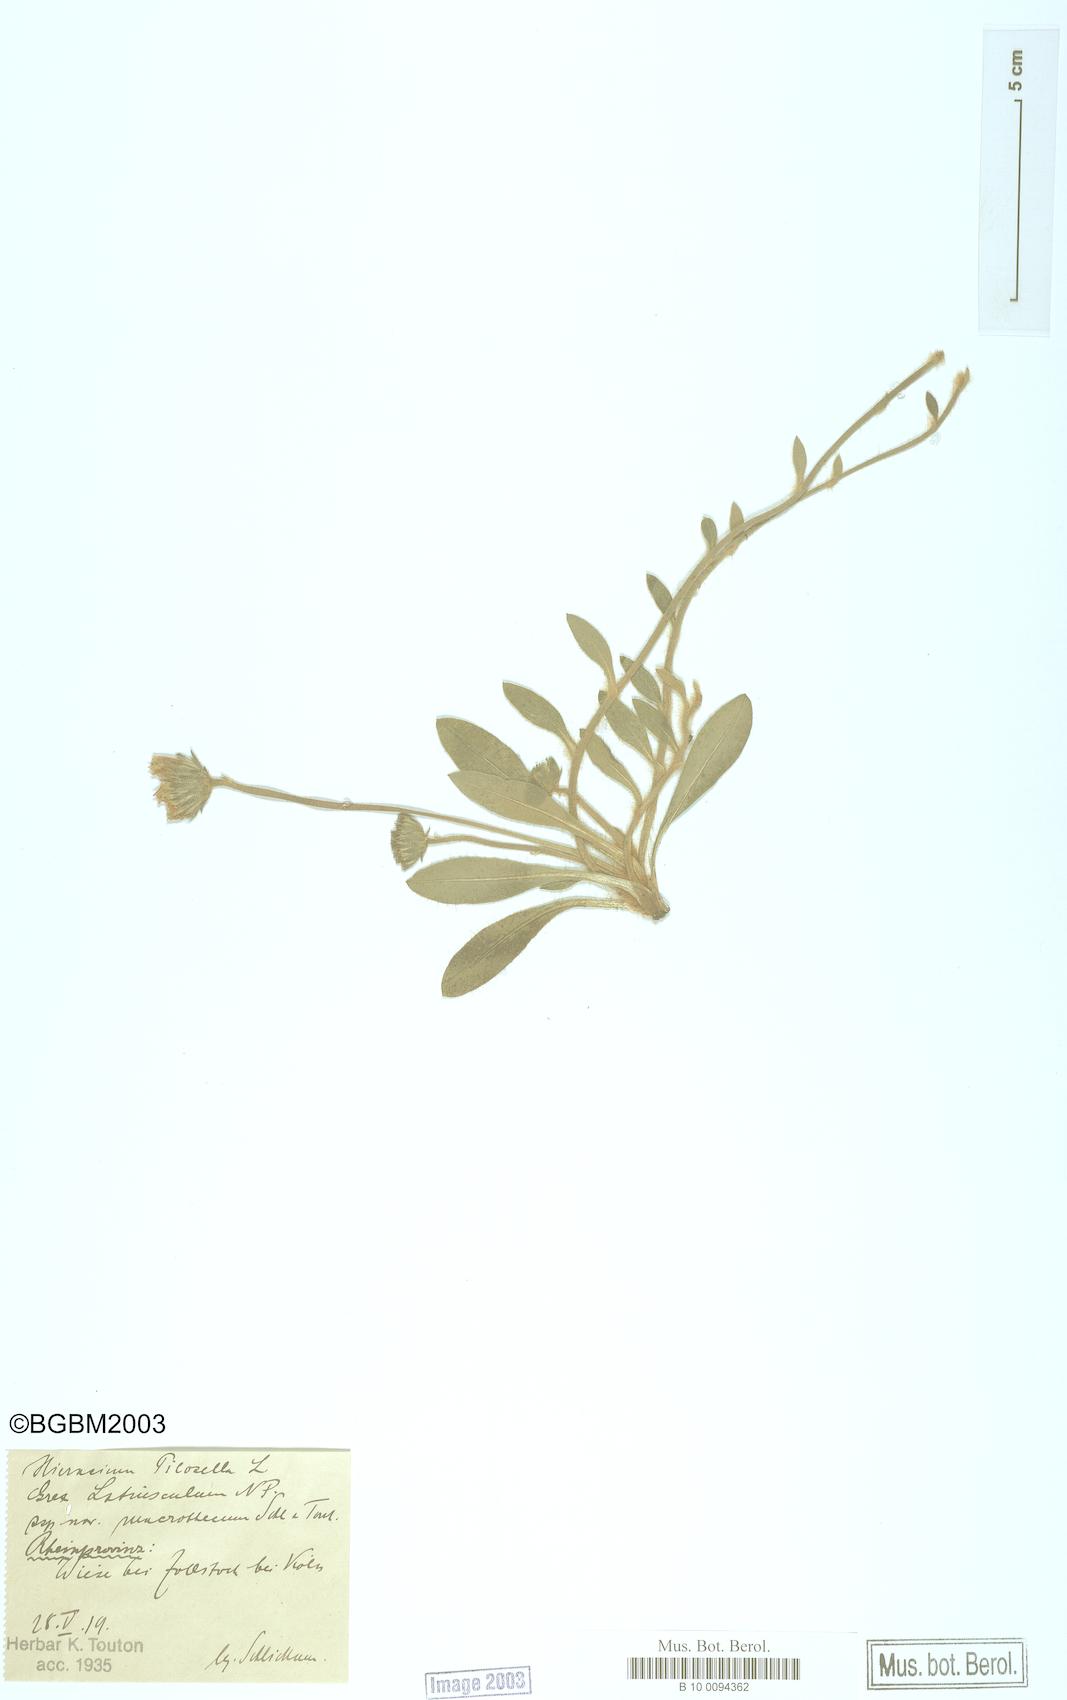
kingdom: Plantae
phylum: Tracheophyta
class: Magnoliopsida
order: Asterales
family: Asteraceae
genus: Pilosella
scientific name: Pilosella officinarum
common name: Mouse-ear hawkweed
